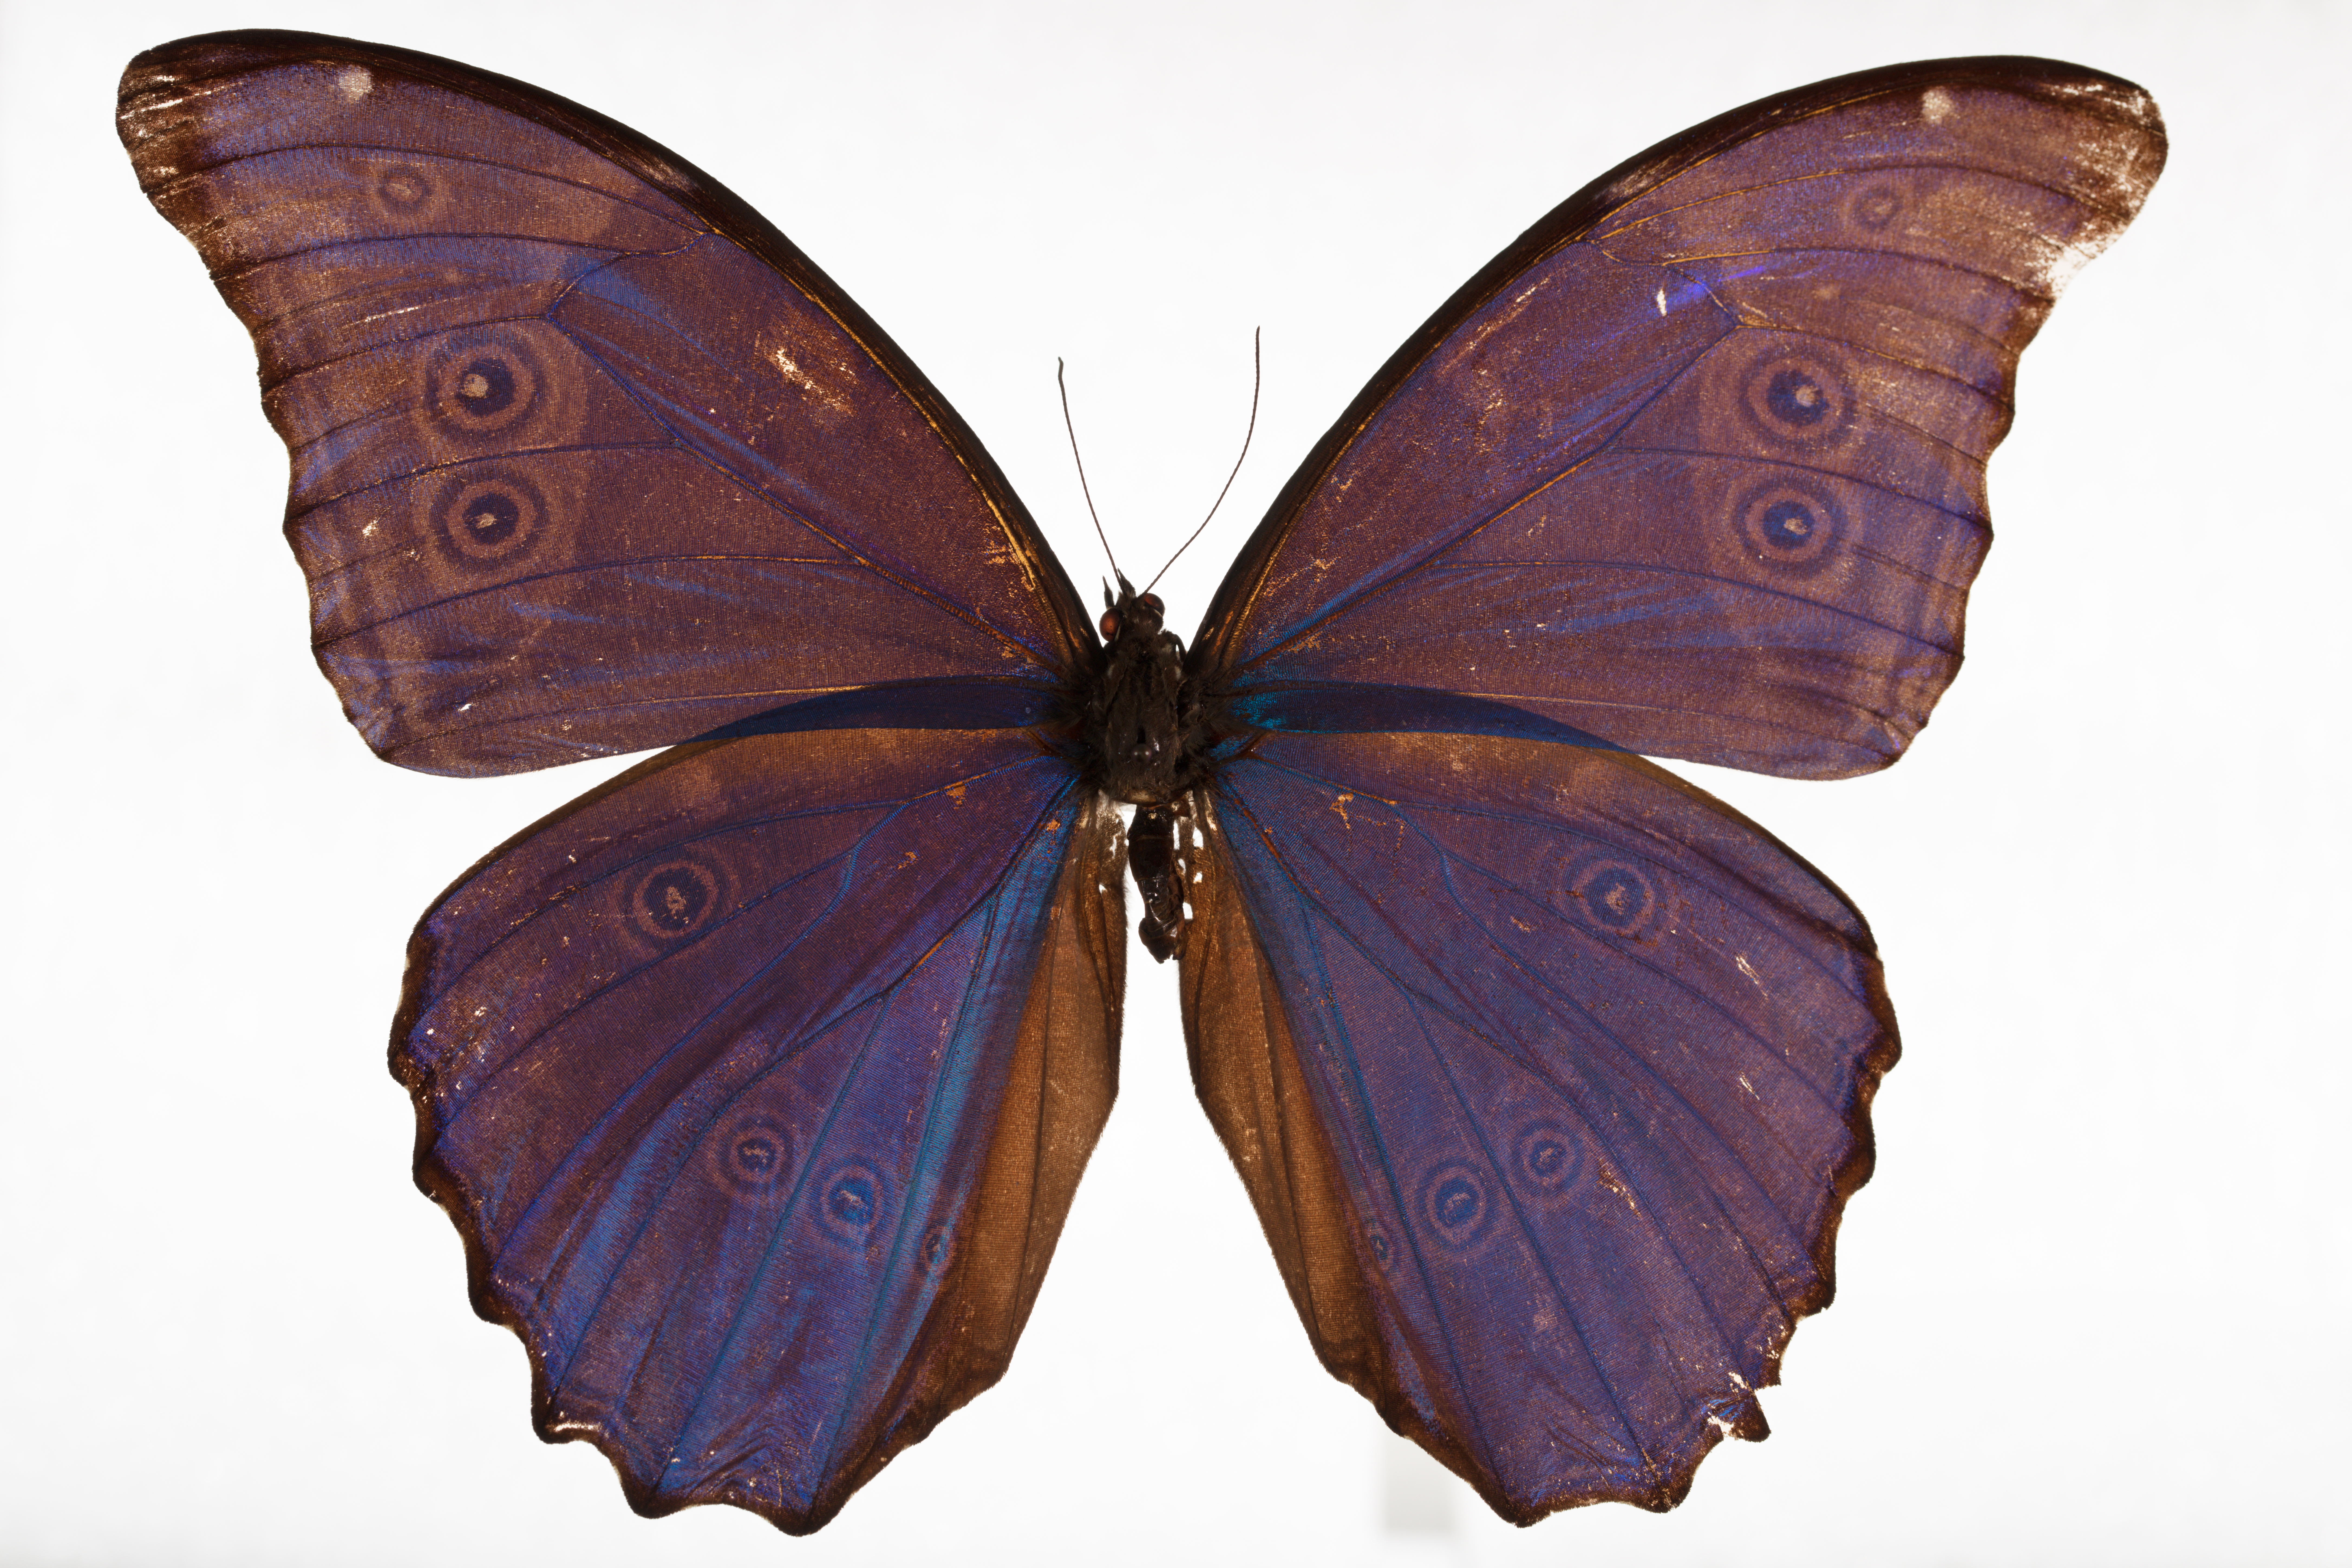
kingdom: Animalia
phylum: Arthropoda
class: Insecta
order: Lepidoptera
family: Nymphalidae
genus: Morpho
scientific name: Morpho godartii
